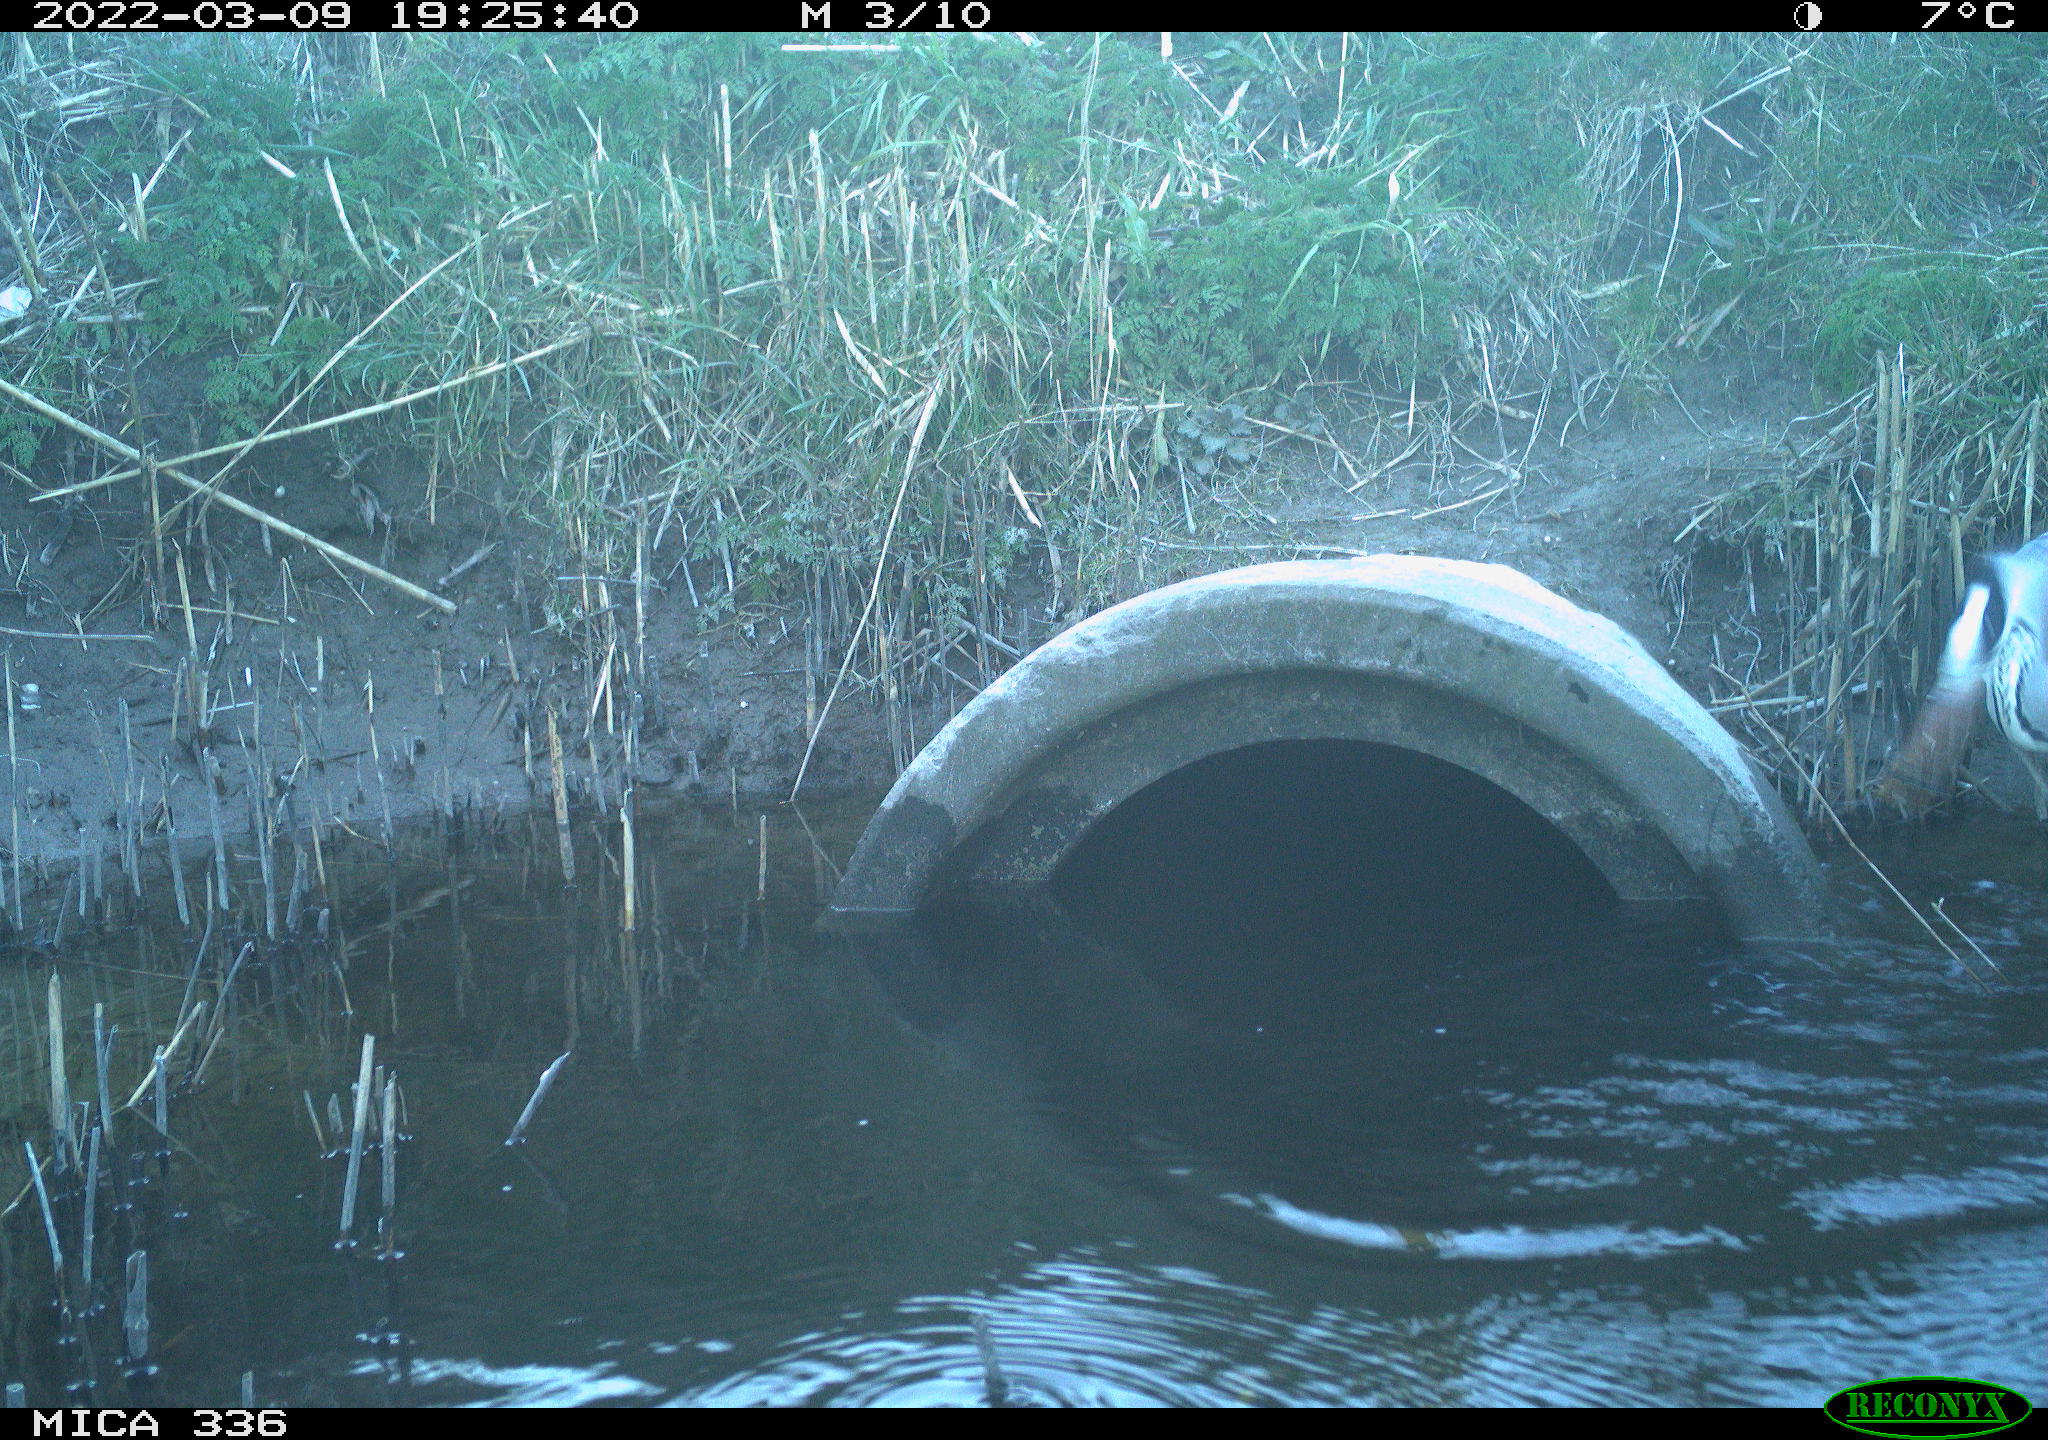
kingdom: Animalia
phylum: Chordata
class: Aves
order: Pelecaniformes
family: Ardeidae
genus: Ardea
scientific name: Ardea cinerea
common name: Grey heron
